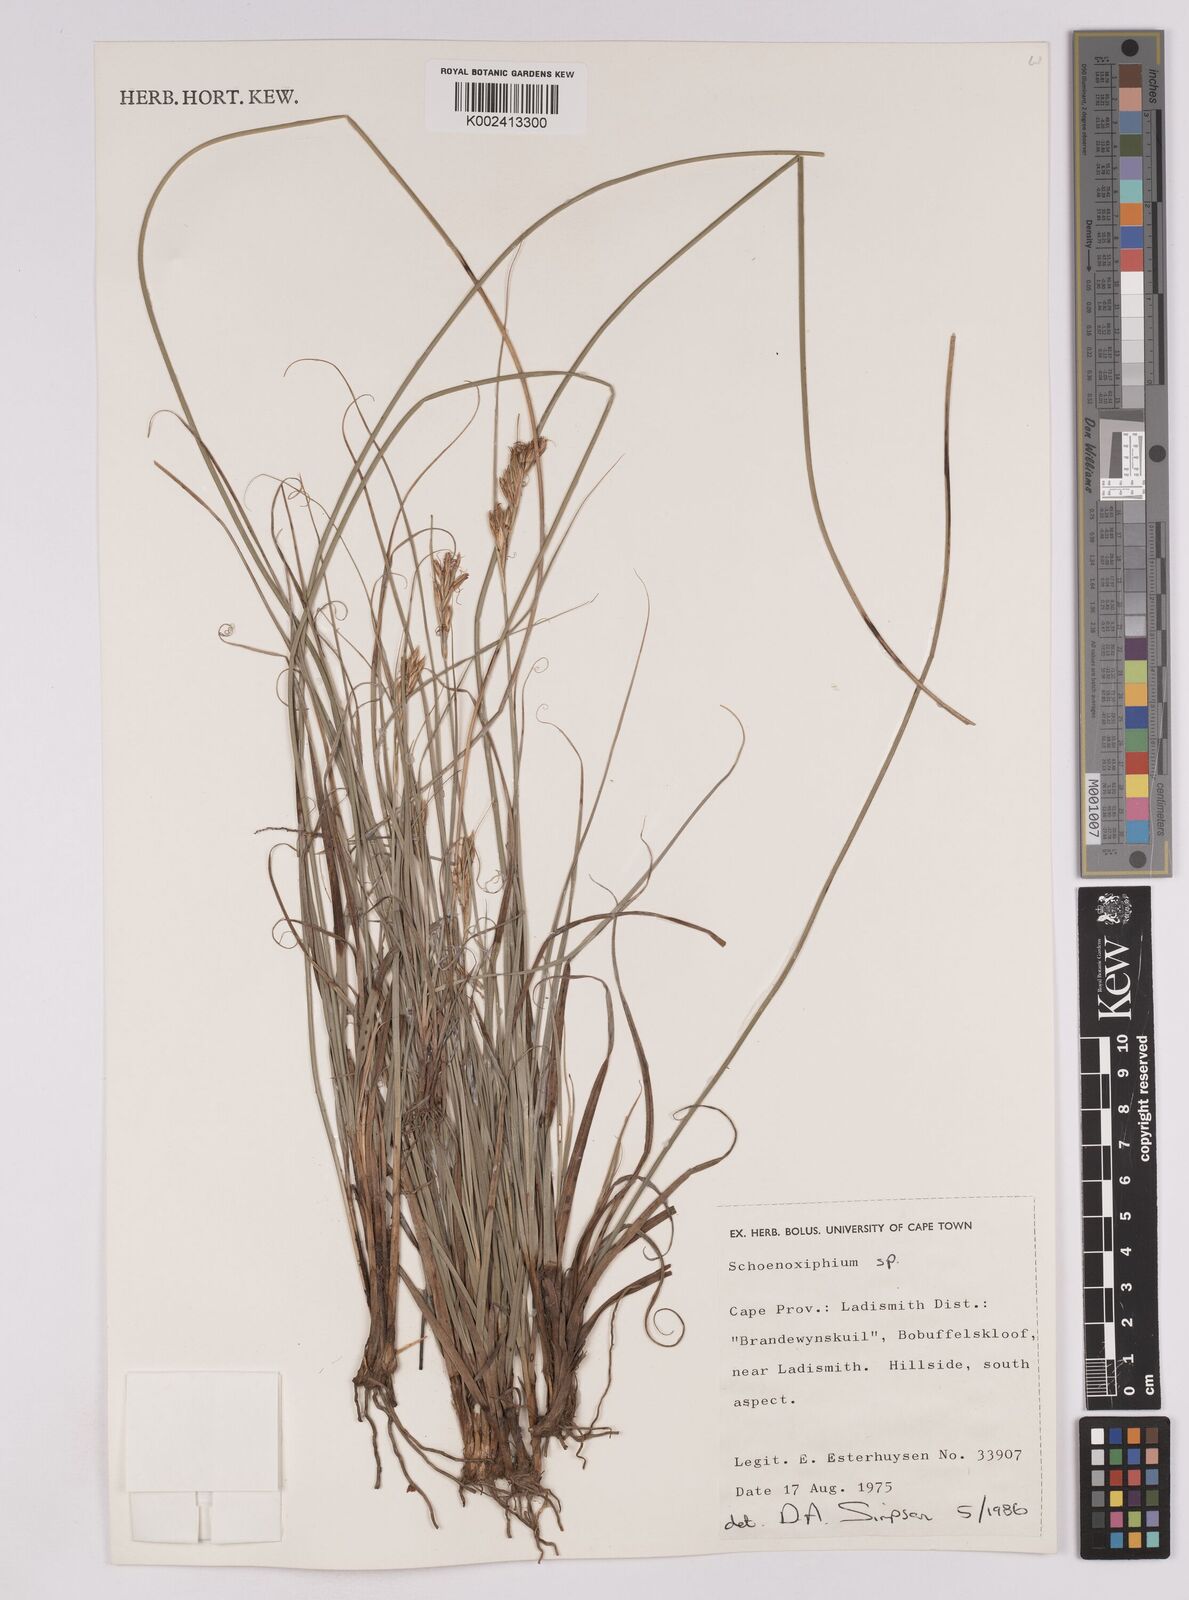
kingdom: Plantae
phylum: Tracheophyta
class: Liliopsida
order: Poales
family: Cyperaceae
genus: Carex
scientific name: Carex
